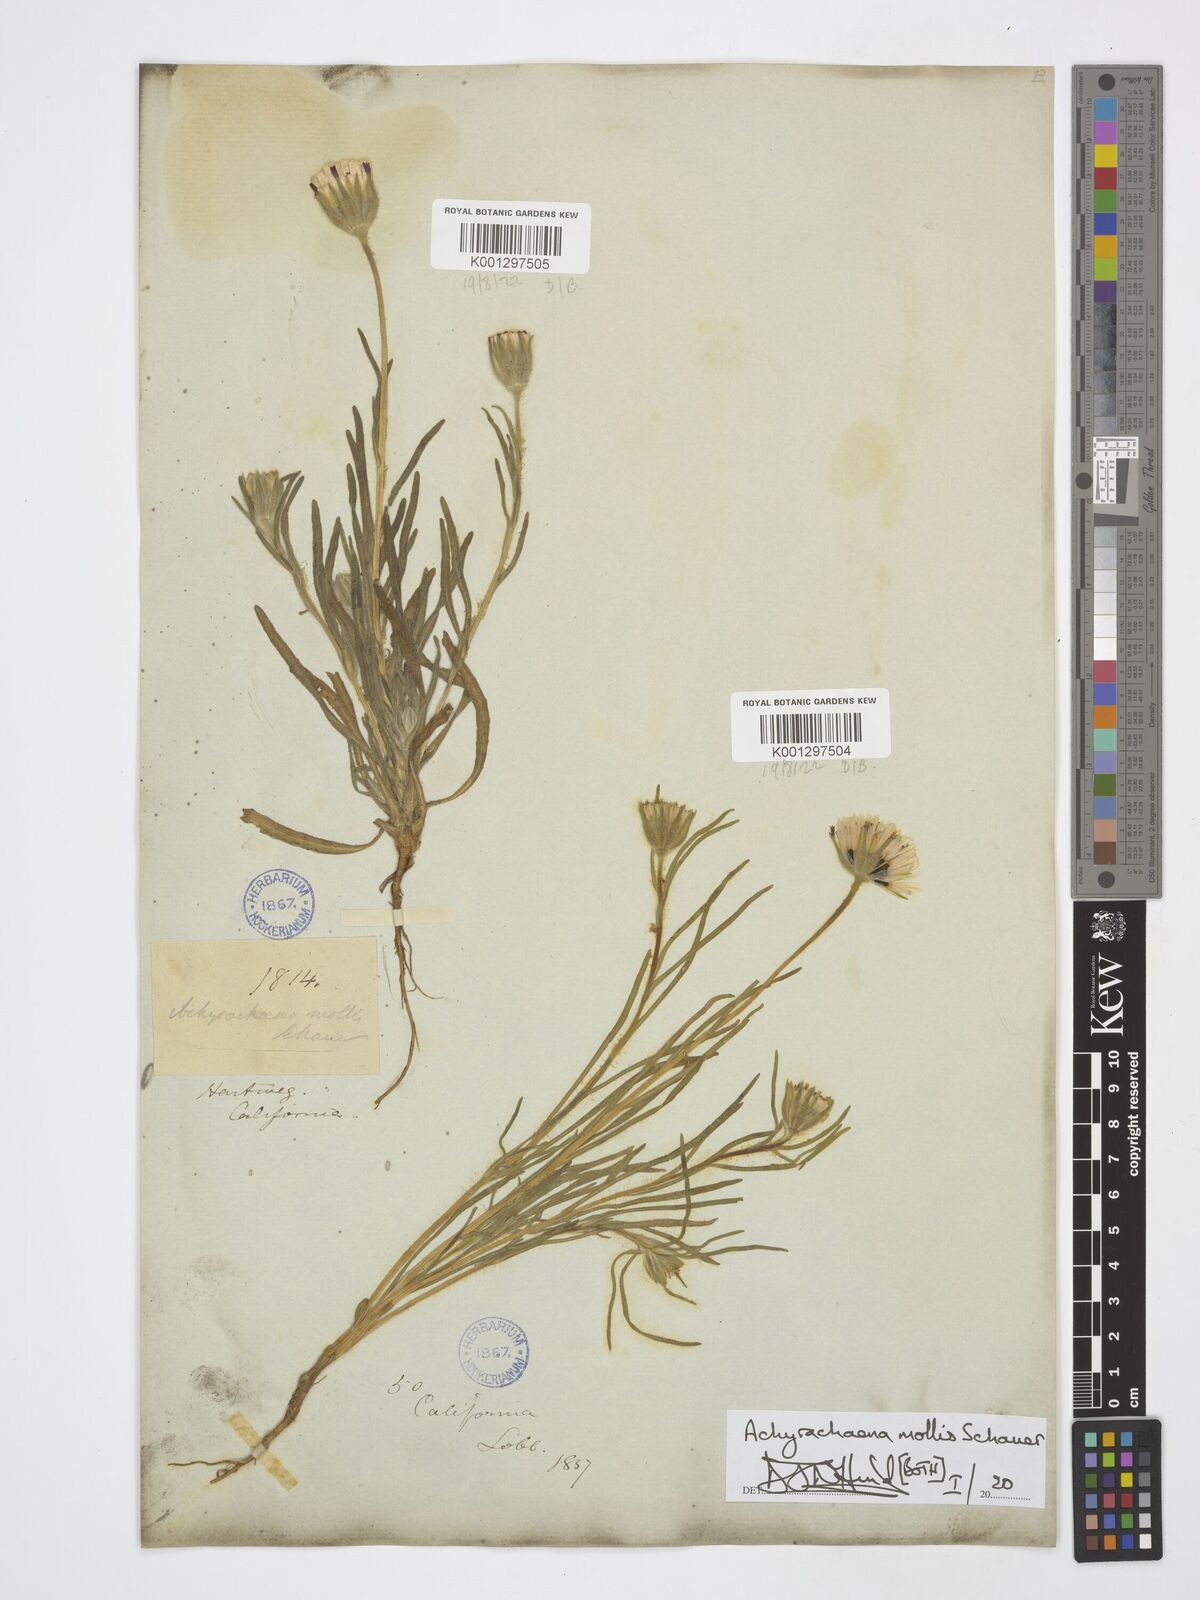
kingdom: Plantae
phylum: Tracheophyta
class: Magnoliopsida
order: Asterales
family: Asteraceae
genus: Achyrachaena
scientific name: Achyrachaena mollis
